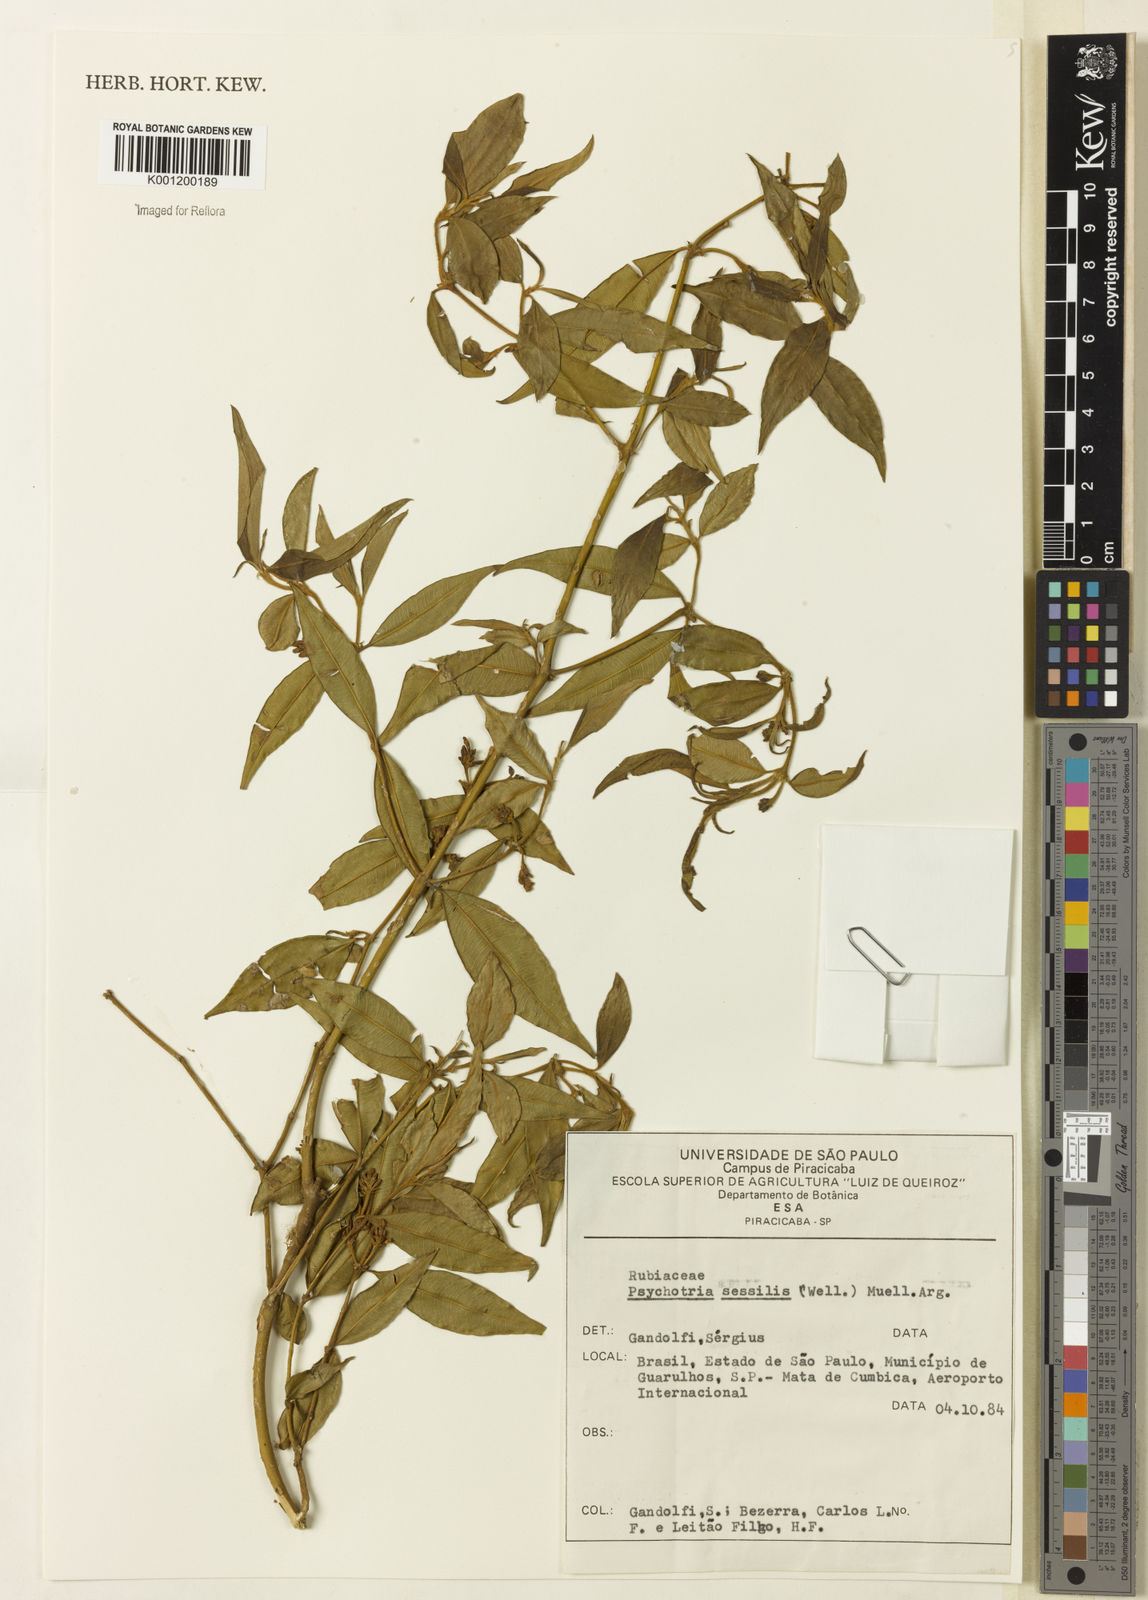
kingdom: Plantae
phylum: Tracheophyta
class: Magnoliopsida
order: Gentianales
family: Rubiaceae
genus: Rudgea
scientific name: Rudgea sessilis
